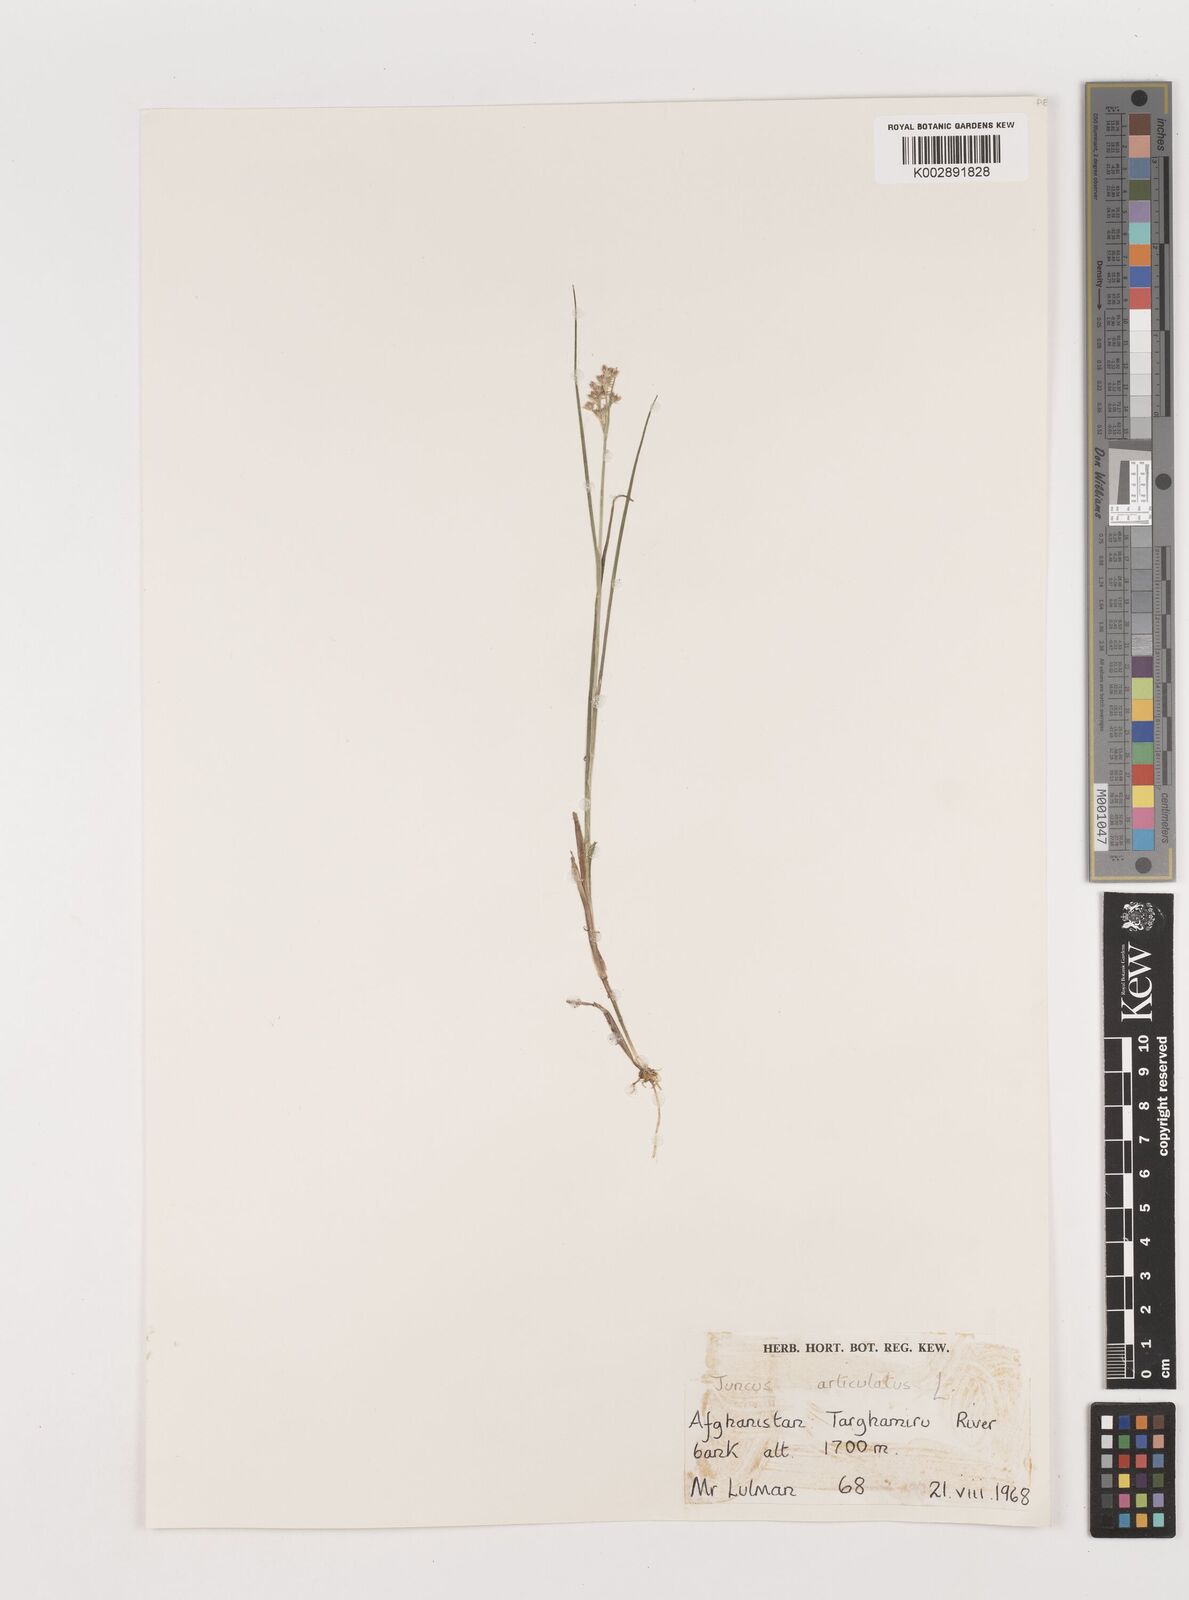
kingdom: Plantae
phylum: Tracheophyta
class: Liliopsida
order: Poales
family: Juncaceae
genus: Juncus
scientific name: Juncus articulatus
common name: Jointed rush
